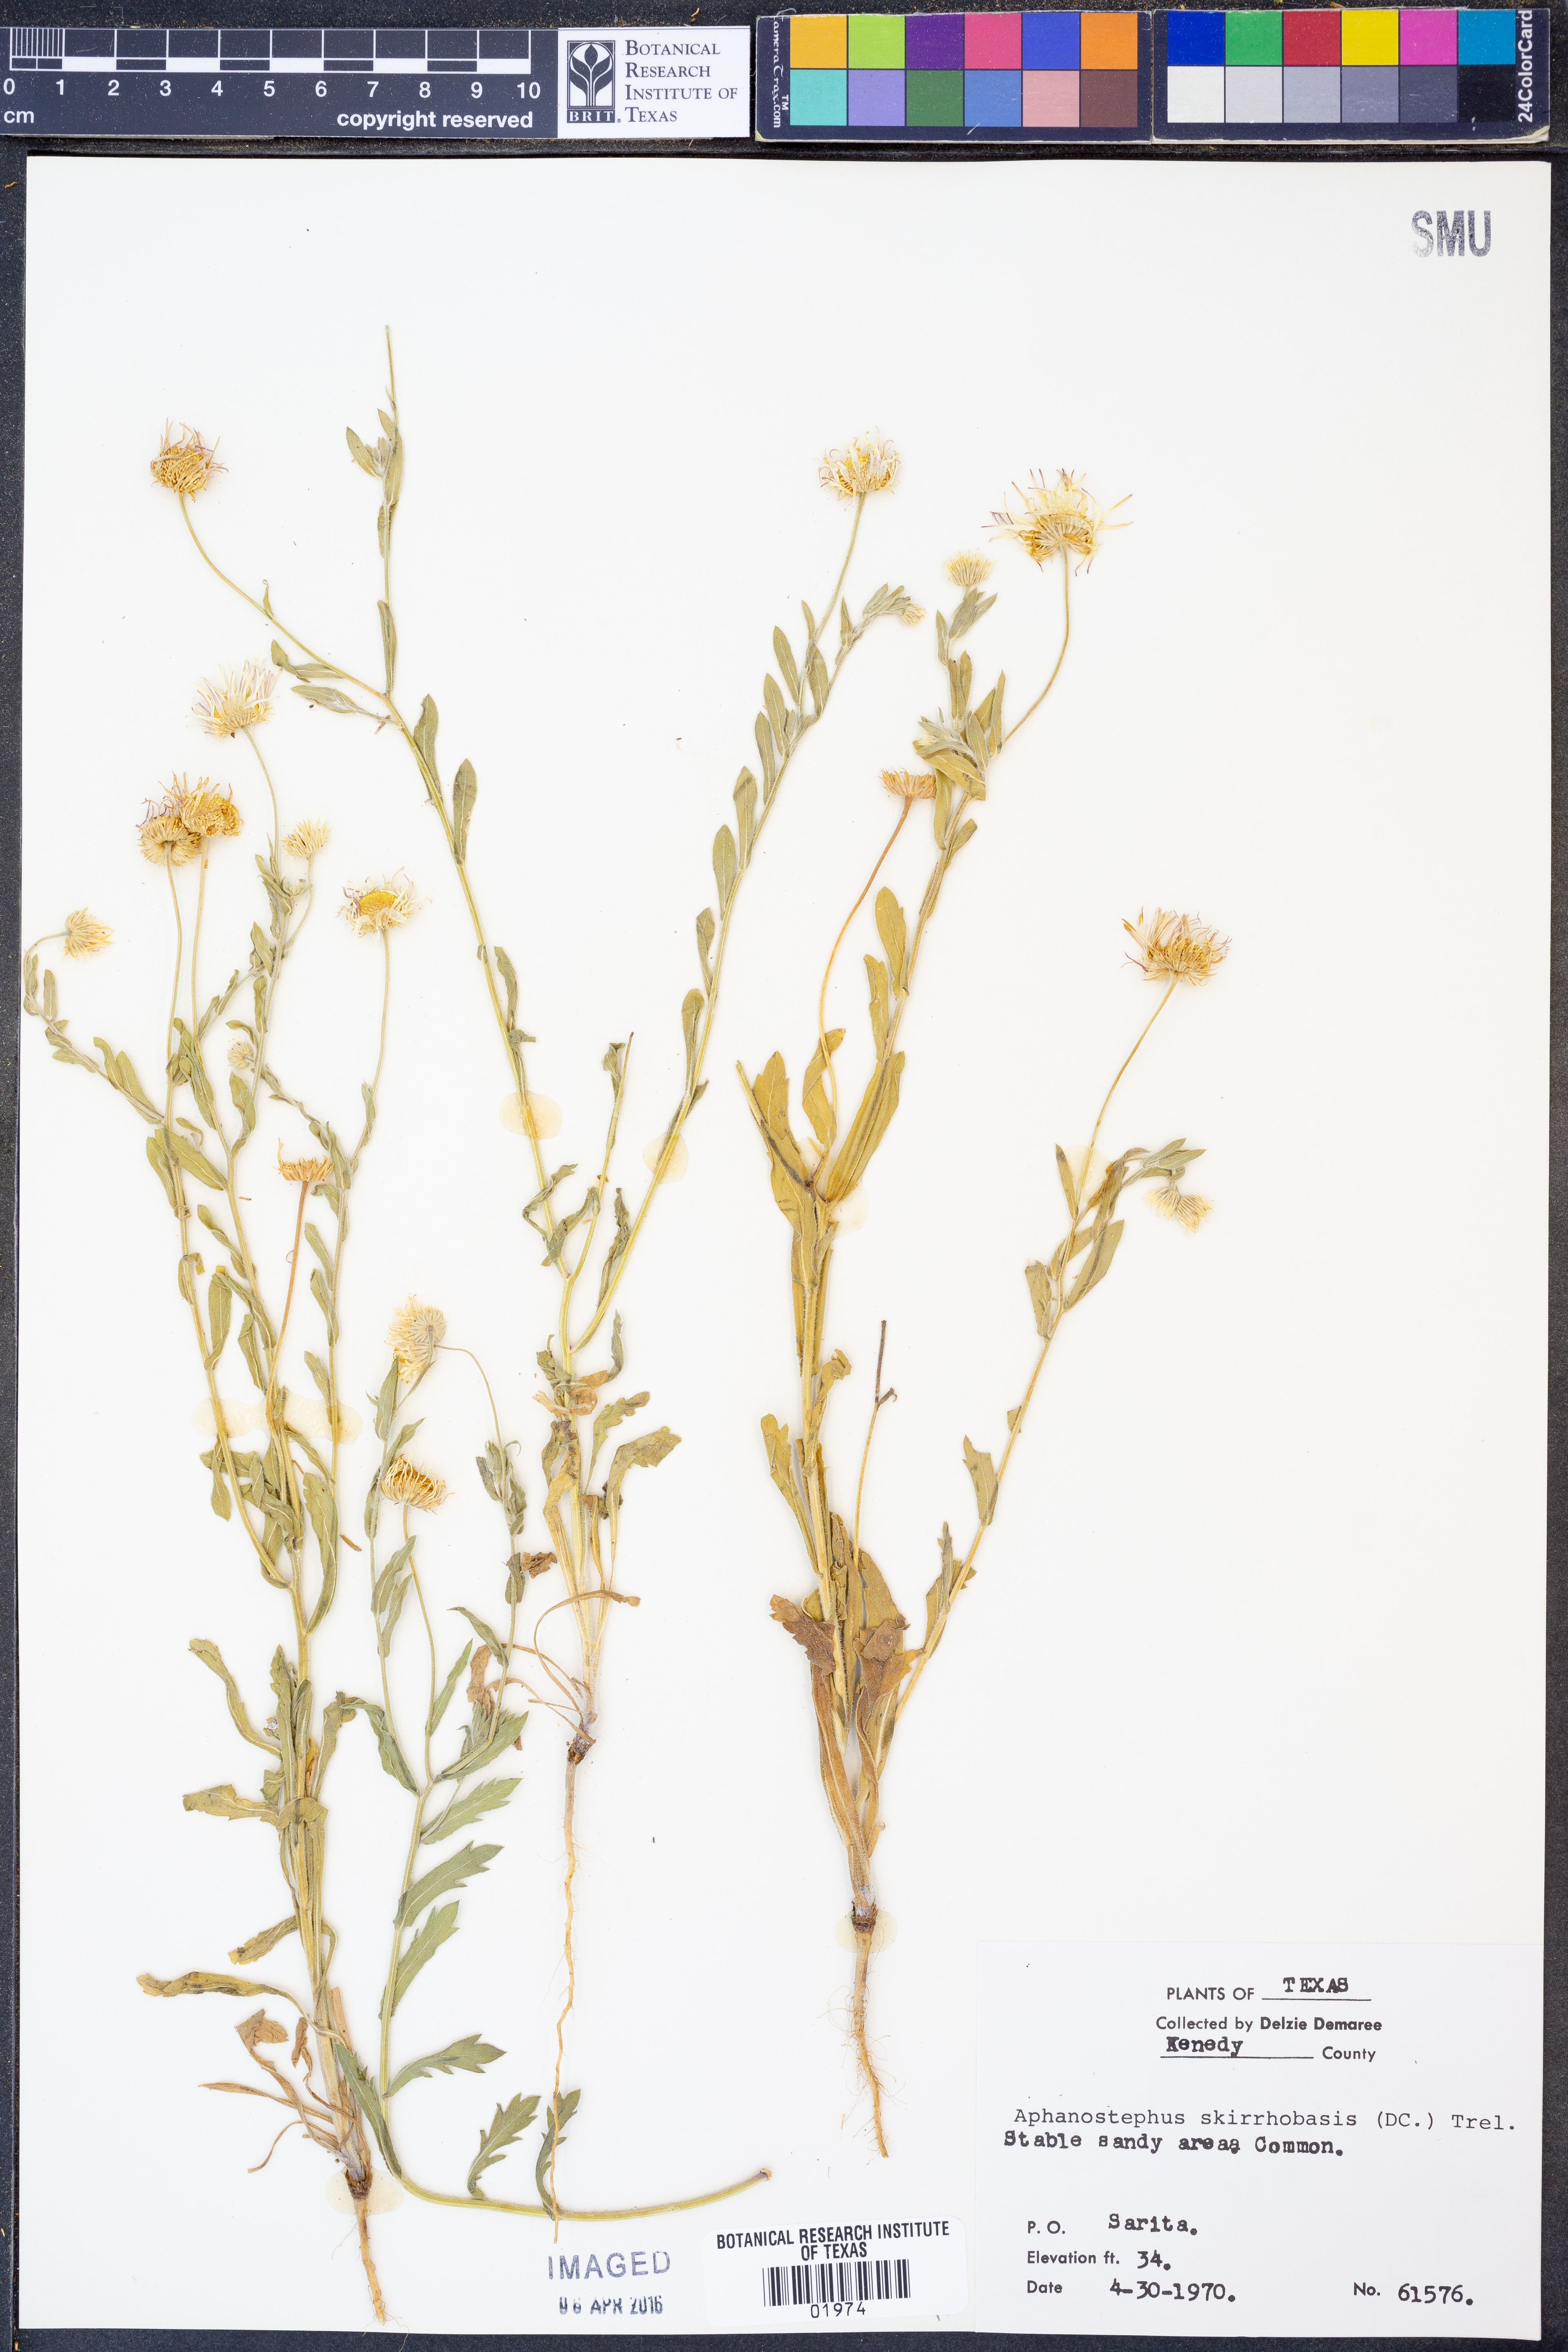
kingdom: Plantae
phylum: Tracheophyta
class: Magnoliopsida
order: Asterales
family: Asteraceae
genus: Aphanostephus
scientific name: Aphanostephus skirrhobasis
